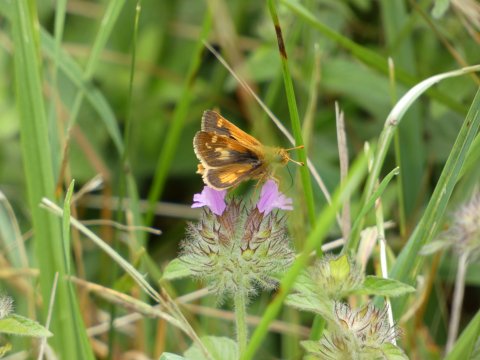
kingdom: Animalia
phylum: Arthropoda
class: Insecta
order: Lepidoptera
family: Hesperiidae
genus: Polites
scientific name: Polites
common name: Long Dash Skipper
